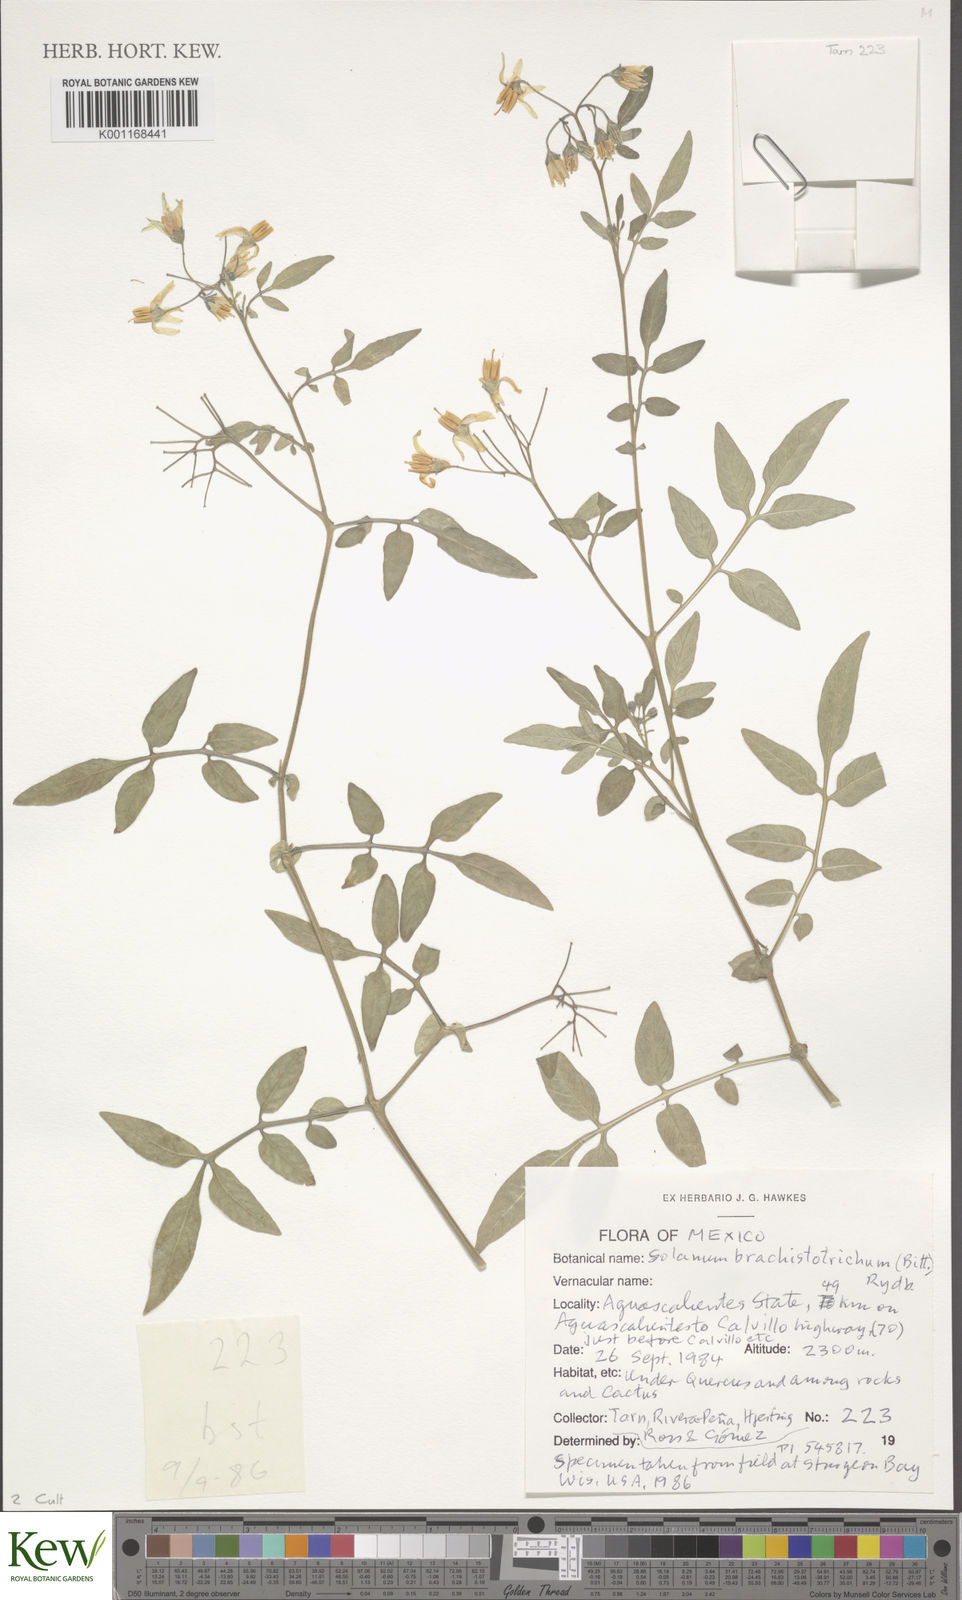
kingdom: Plantae
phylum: Tracheophyta
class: Magnoliopsida
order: Solanales
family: Solanaceae
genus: Solanum
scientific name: Solanum
